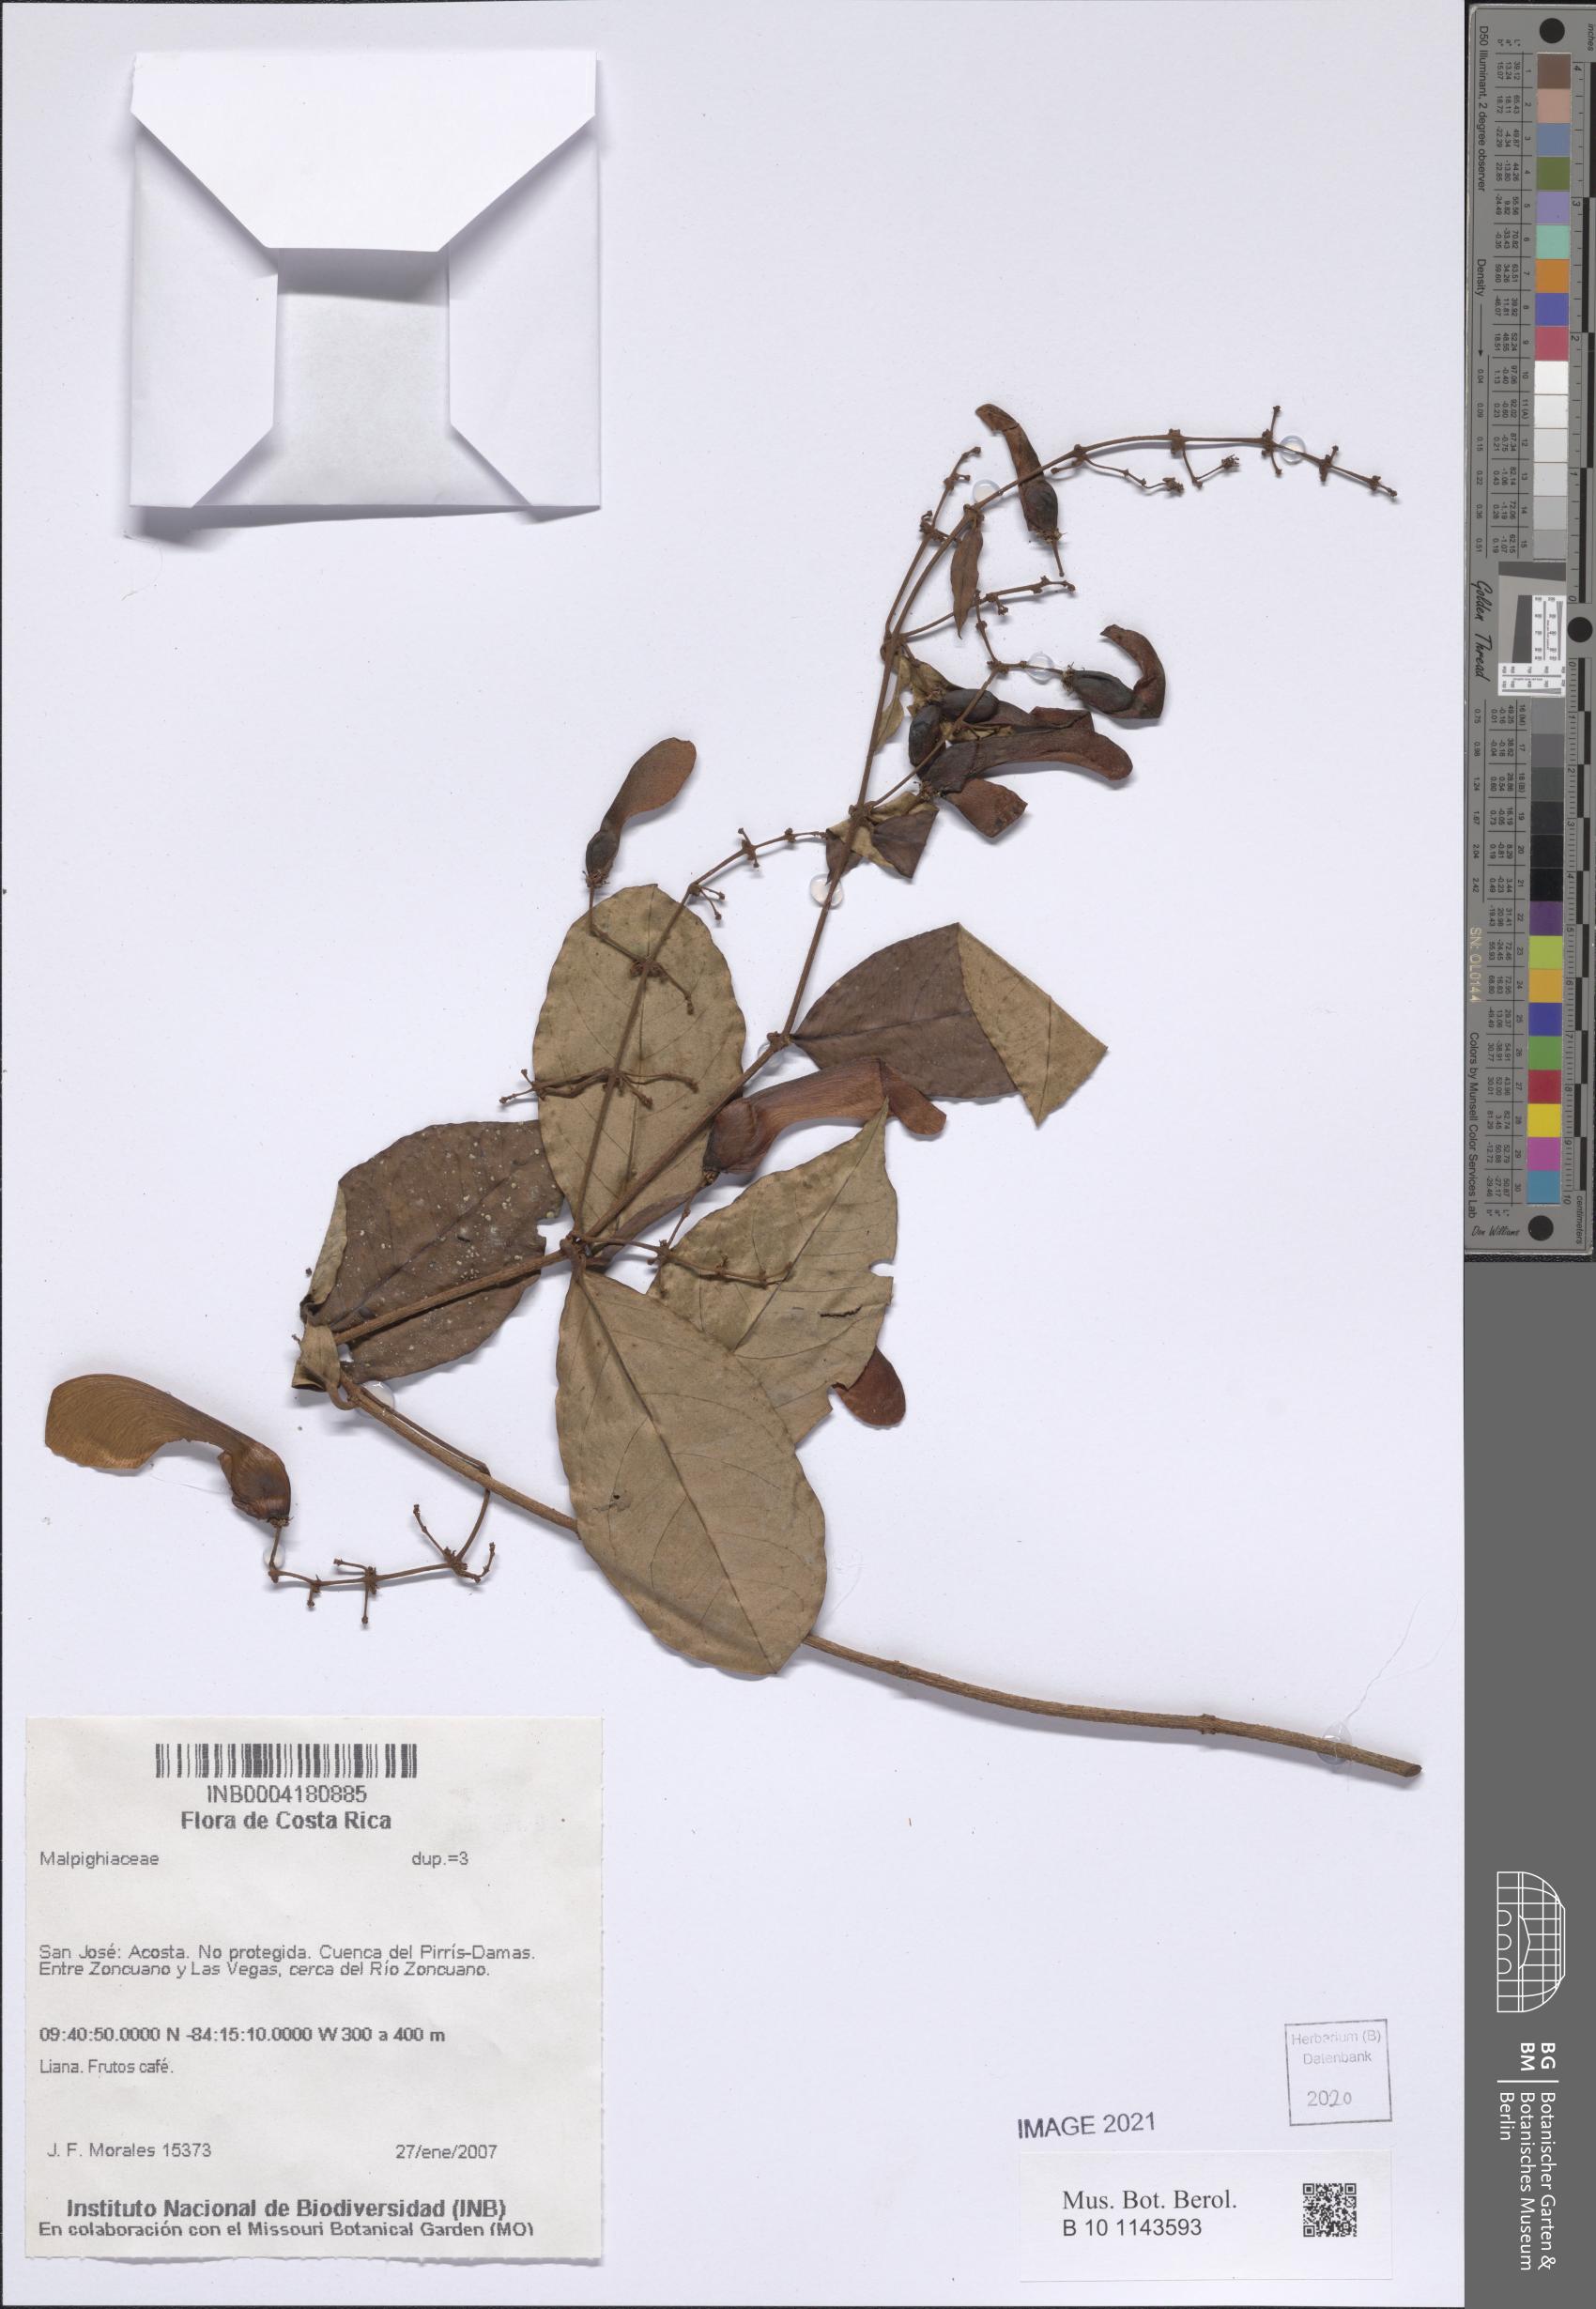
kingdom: Plantae
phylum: Tracheophyta
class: Magnoliopsida
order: Malpighiales
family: Malpighiaceae
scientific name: Malpighiaceae
